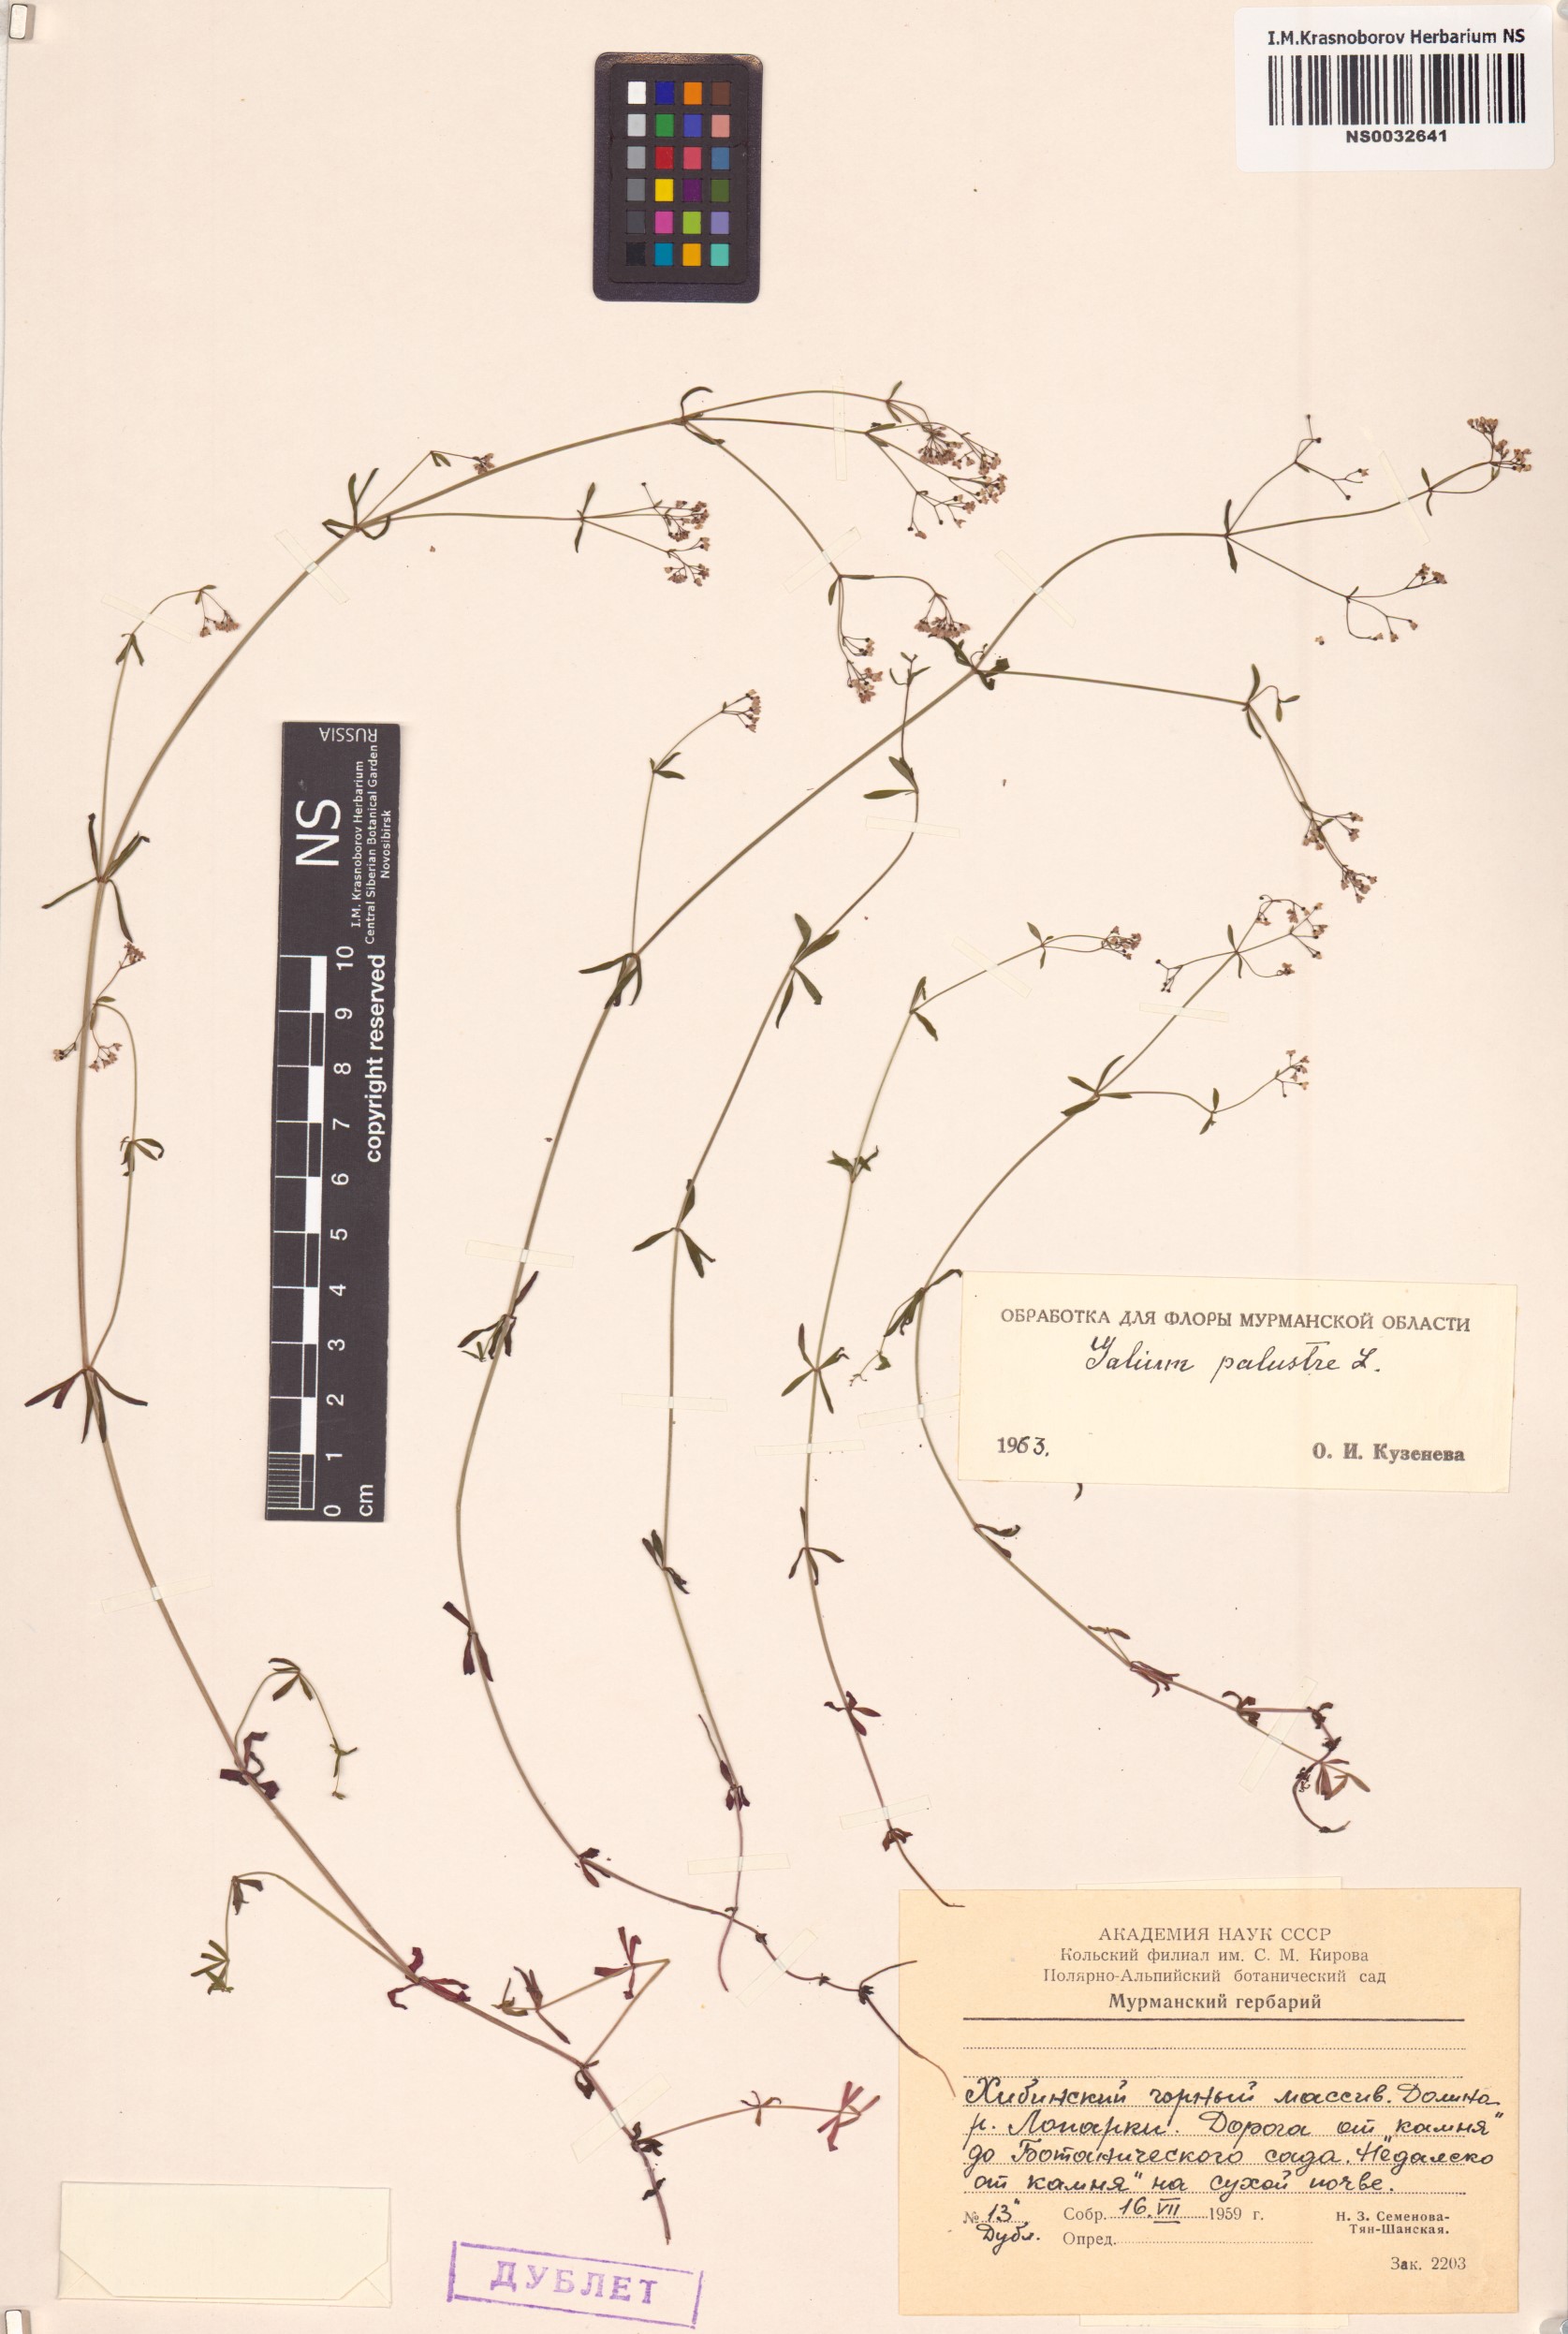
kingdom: Plantae
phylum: Tracheophyta
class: Magnoliopsida
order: Gentianales
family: Rubiaceae
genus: Galium
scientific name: Galium palustre
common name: Common marsh-bedstraw
